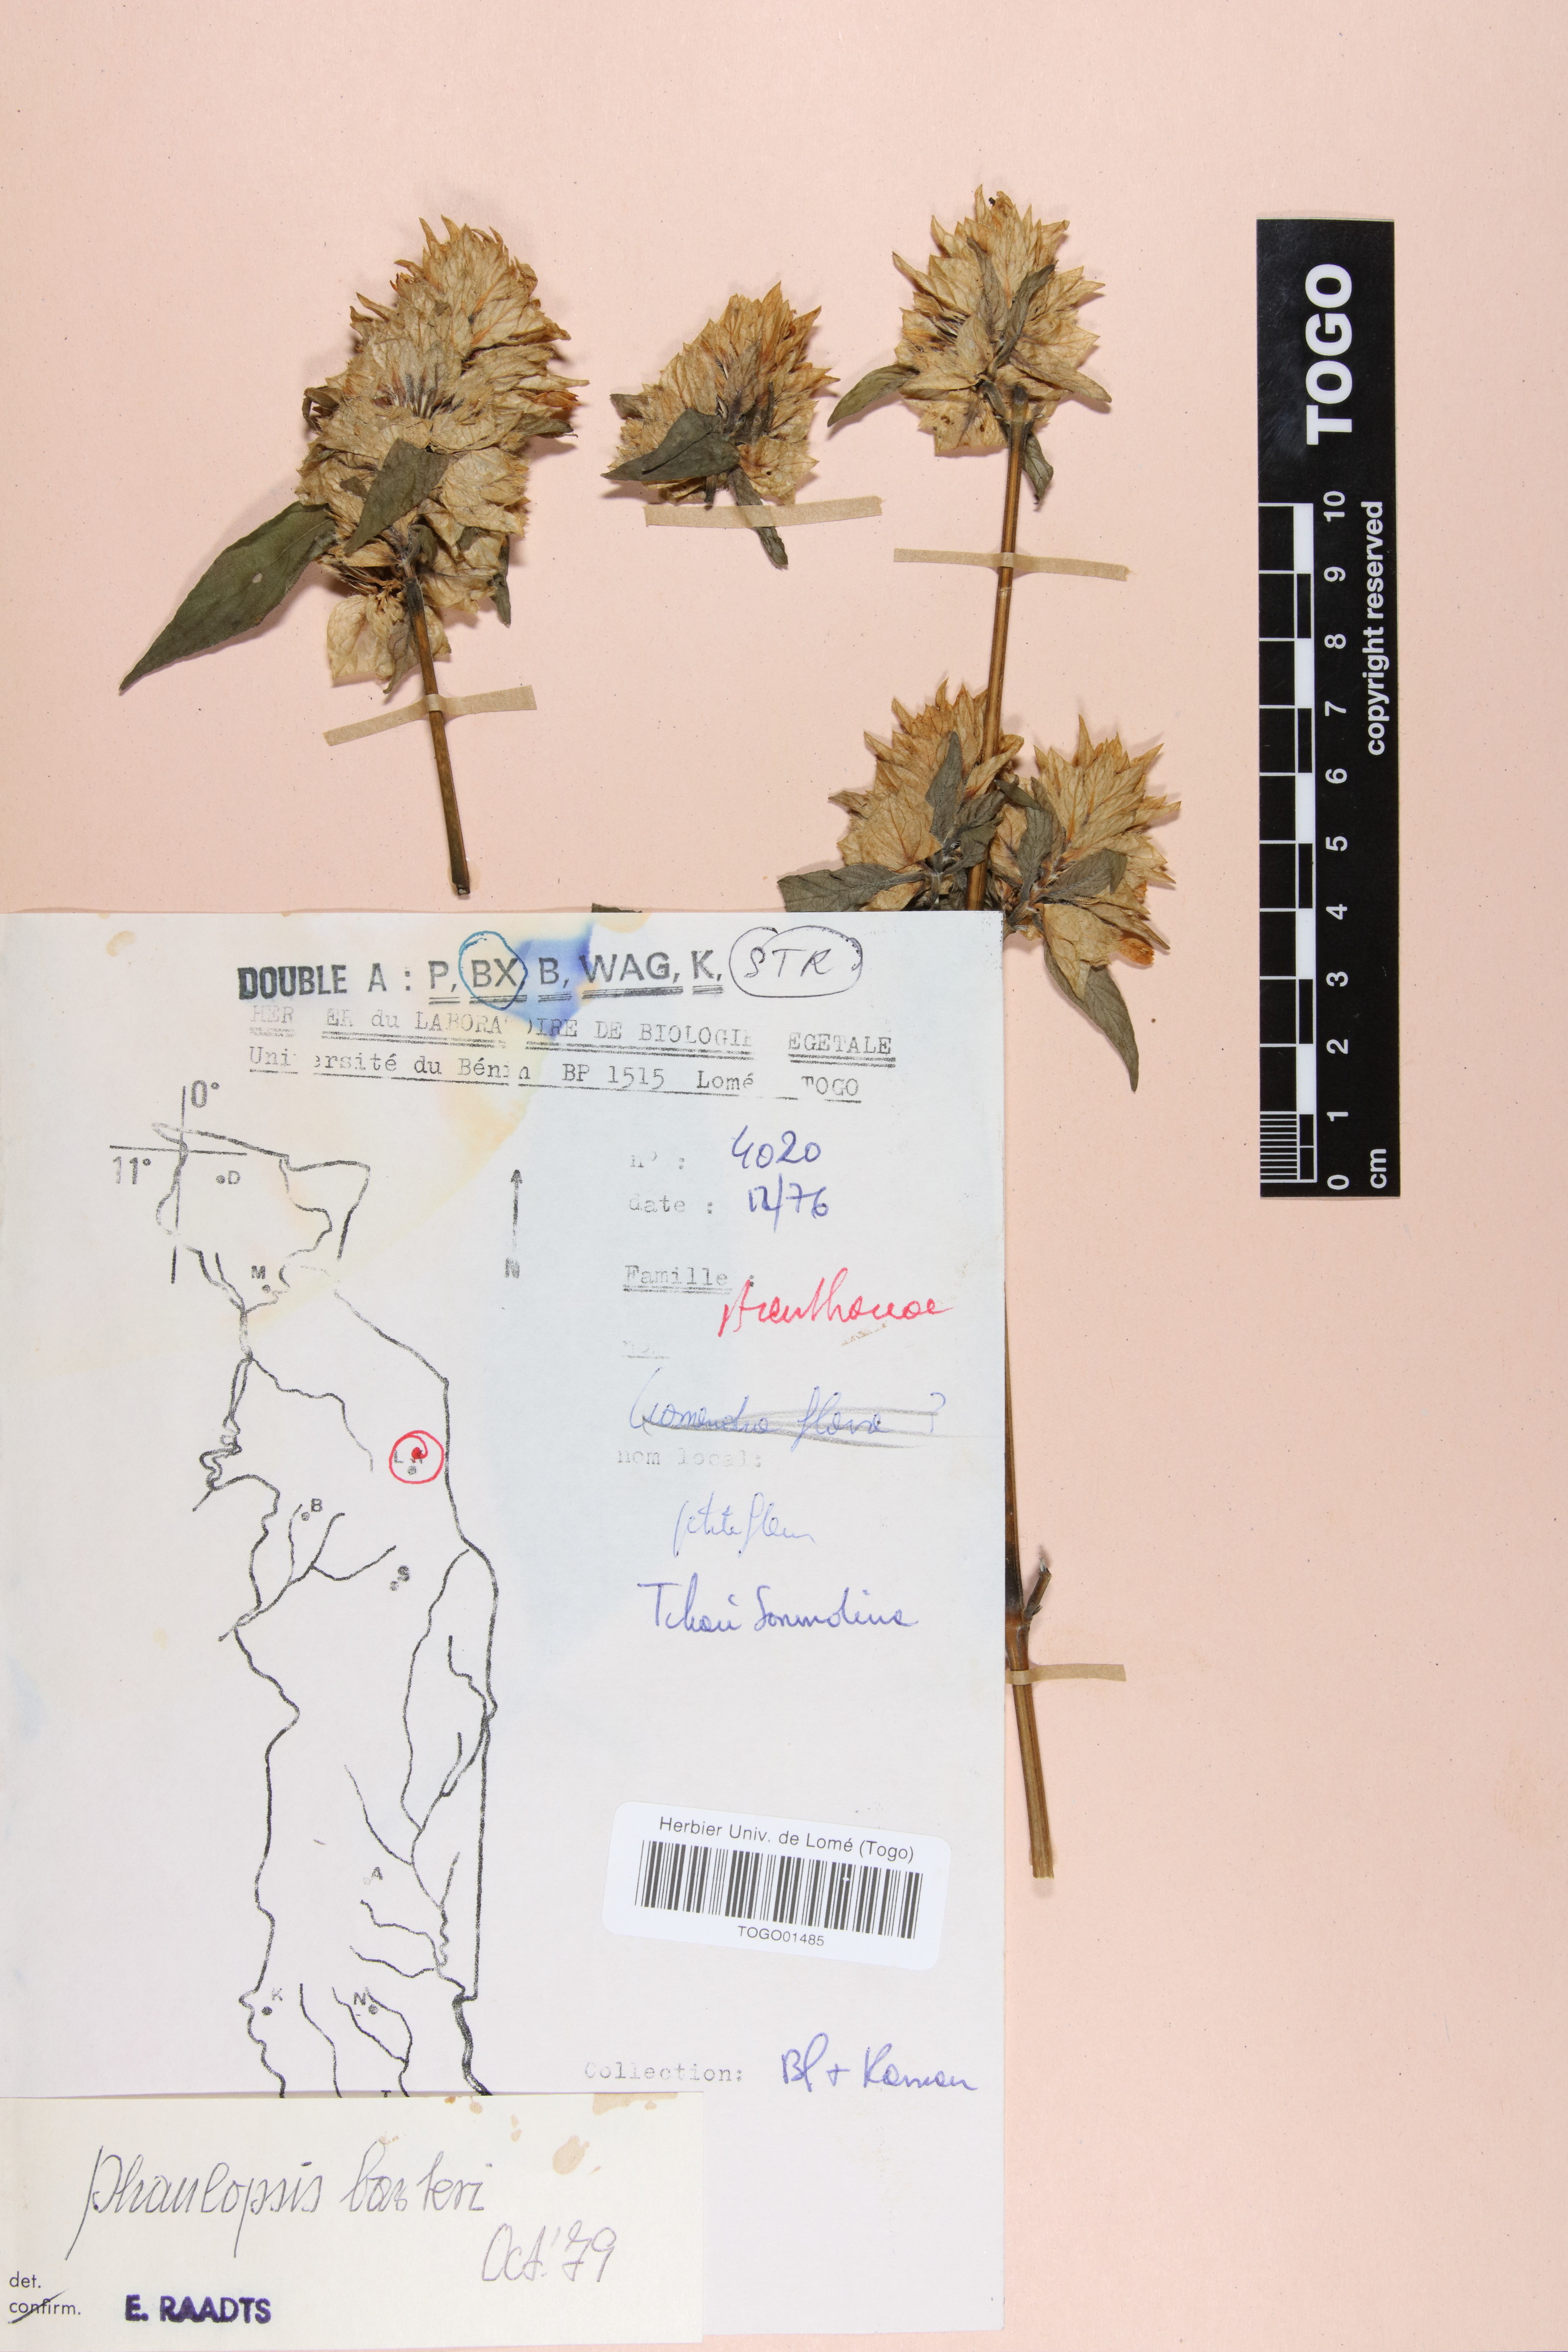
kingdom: Plantae
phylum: Tracheophyta
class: Magnoliopsida
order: Lamiales
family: Acanthaceae
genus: Phaulopsis
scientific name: Phaulopsis barteri
